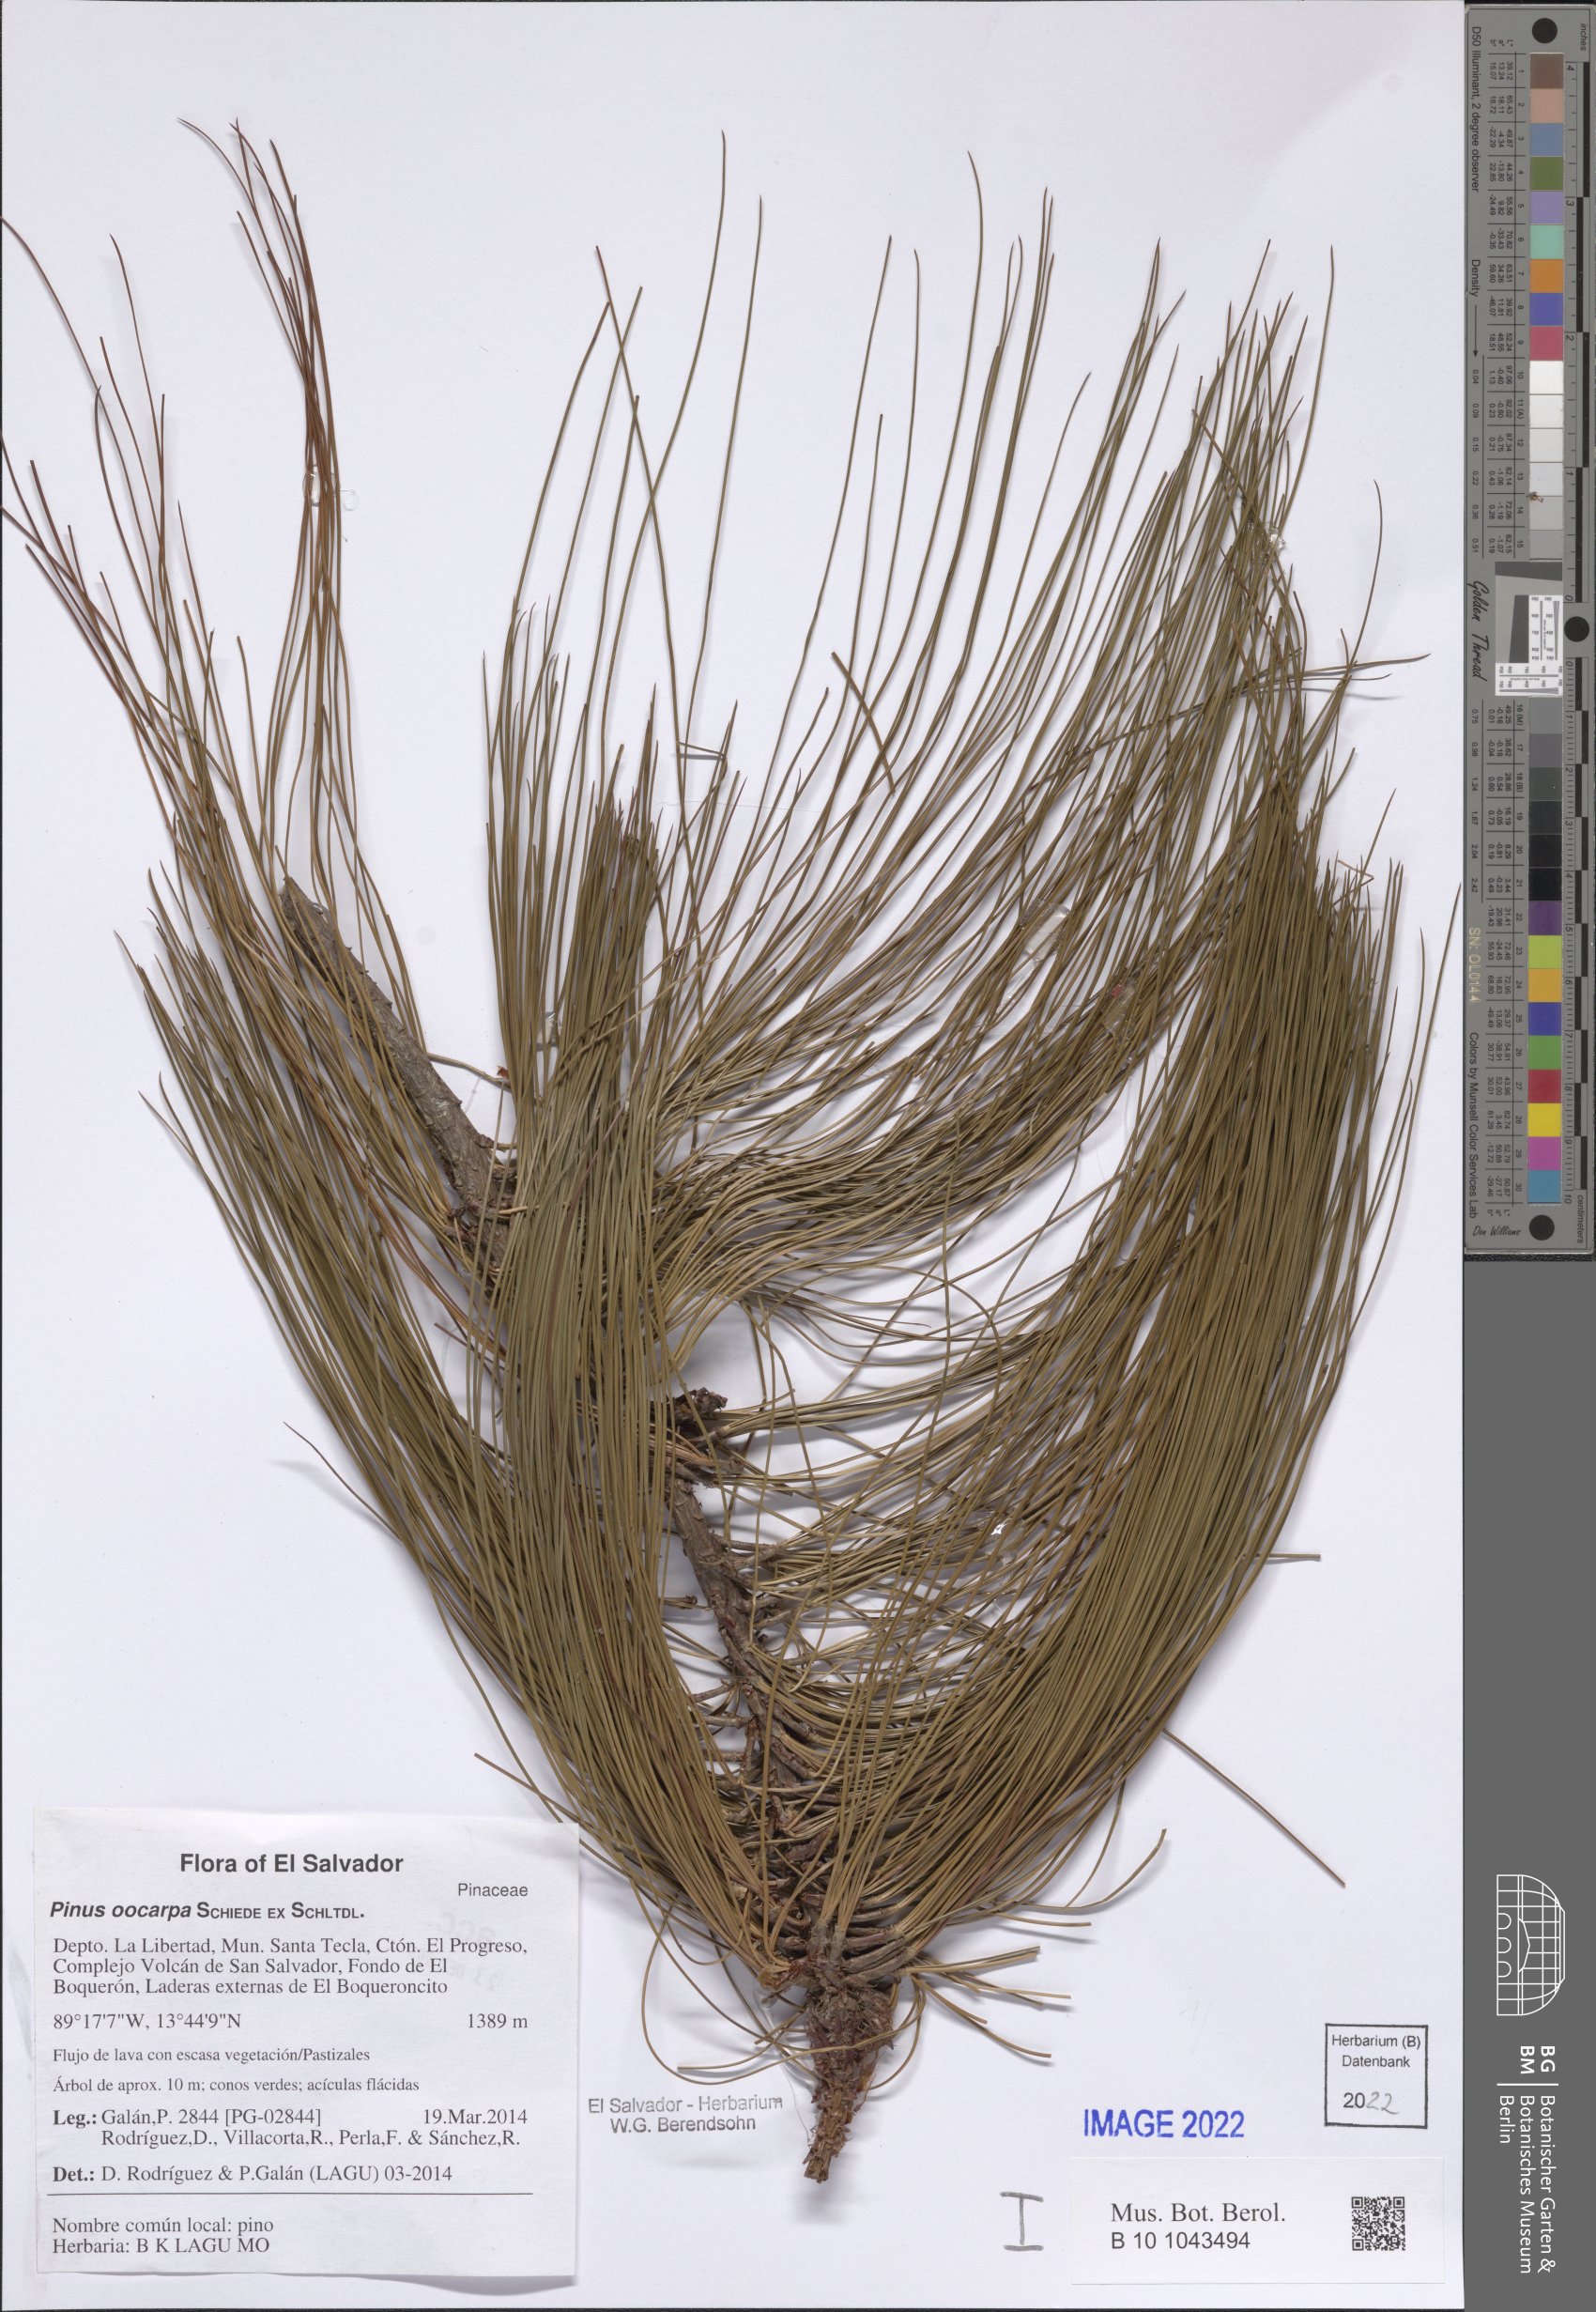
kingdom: Plantae
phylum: Tracheophyta
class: Pinopsida
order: Pinales
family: Pinaceae
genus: Pinus
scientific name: Pinus oocarpa
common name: Egg-cone pine
